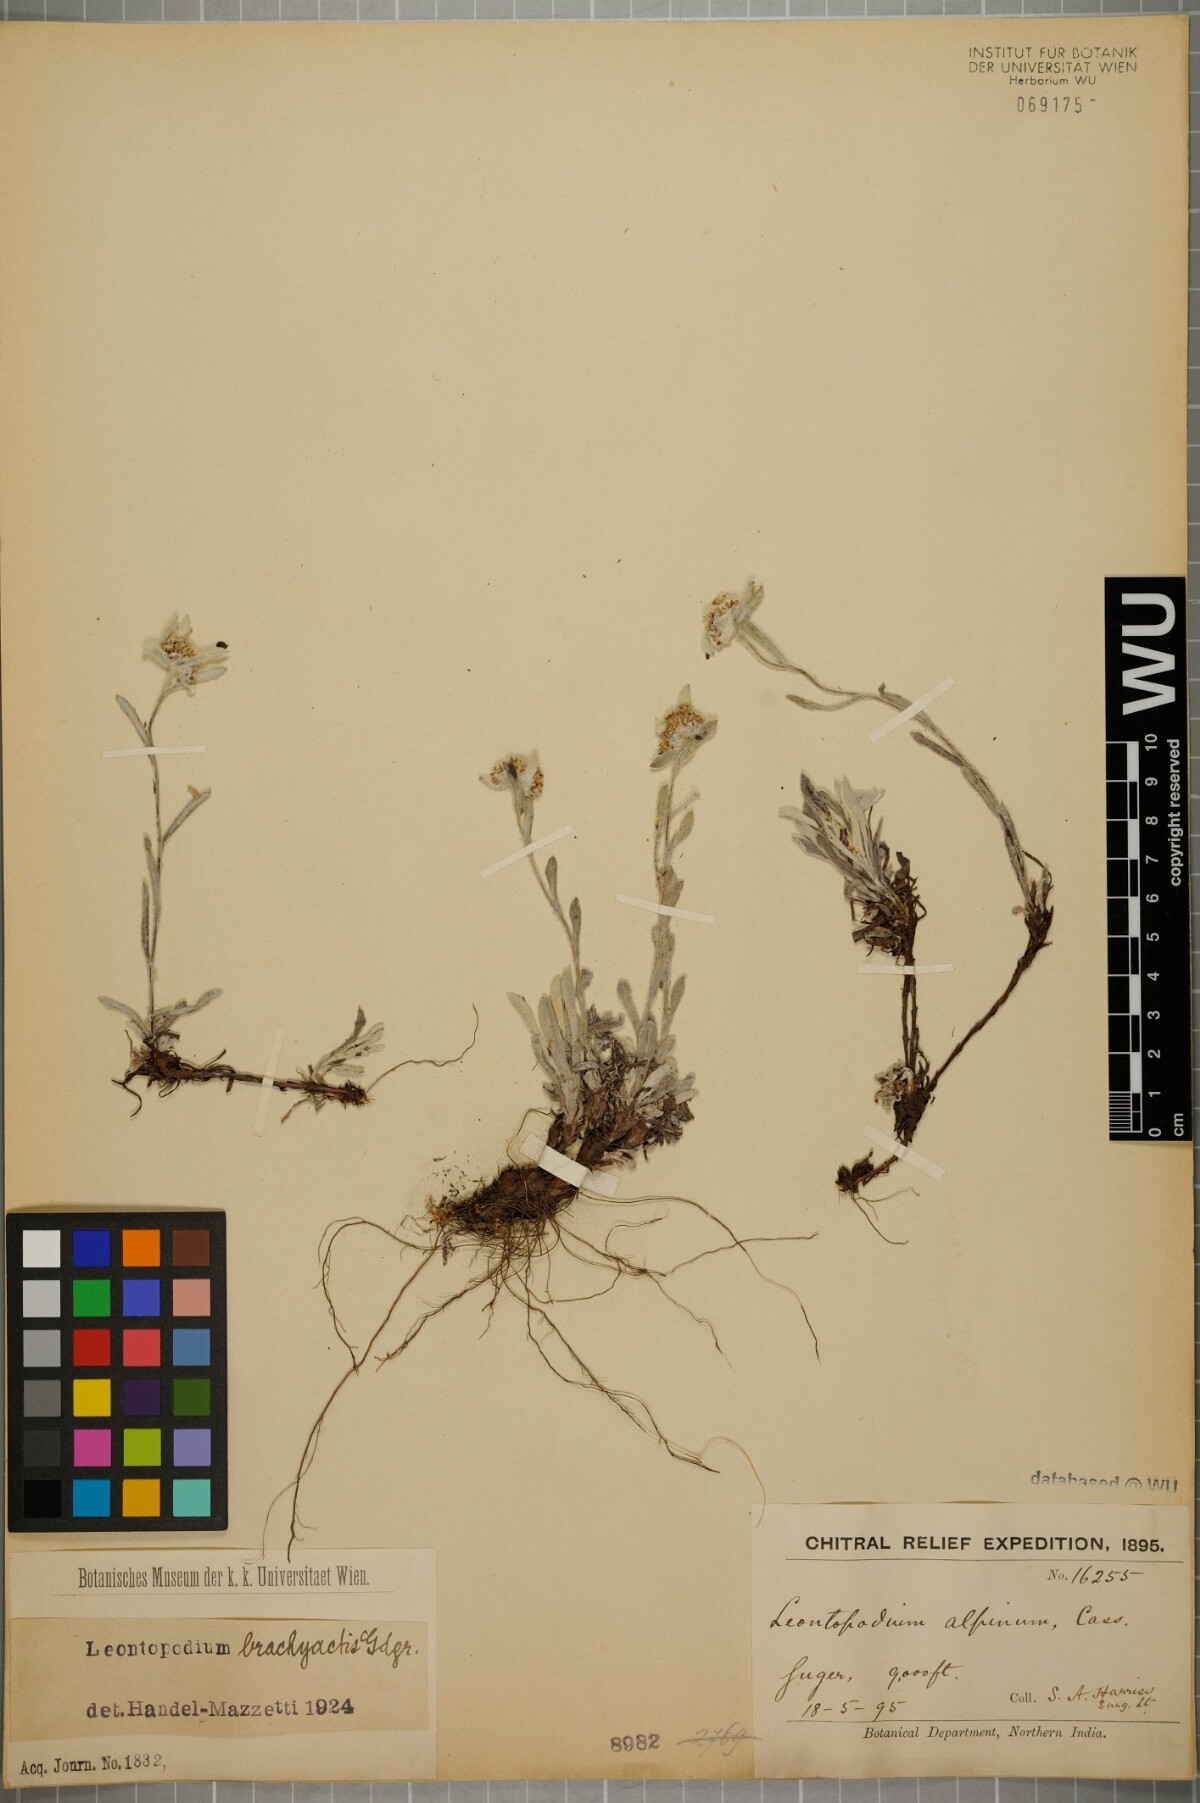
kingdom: Plantae
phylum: Tracheophyta
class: Magnoliopsida
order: Asterales
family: Asteraceae
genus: Leontopodium
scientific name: Leontopodium brachyactis
